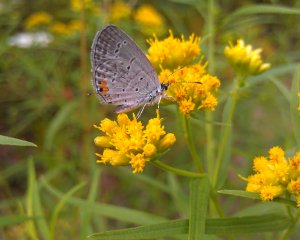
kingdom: Animalia
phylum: Arthropoda
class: Insecta
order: Lepidoptera
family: Lycaenidae
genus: Elkalyce
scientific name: Elkalyce comyntas
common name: Eastern Tailed-Blue
